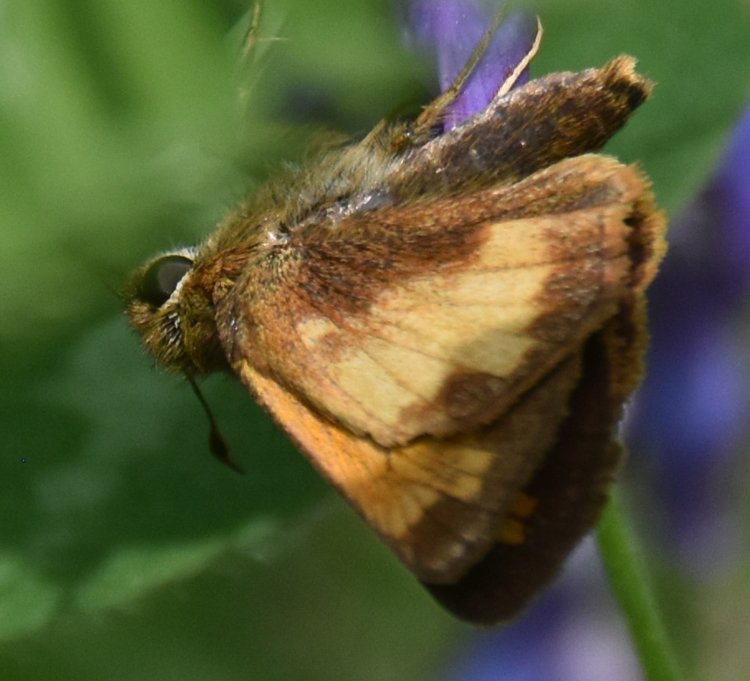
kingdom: Animalia
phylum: Arthropoda
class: Insecta
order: Lepidoptera
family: Hesperiidae
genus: Lon
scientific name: Lon hobomok
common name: Hobomok Skipper
